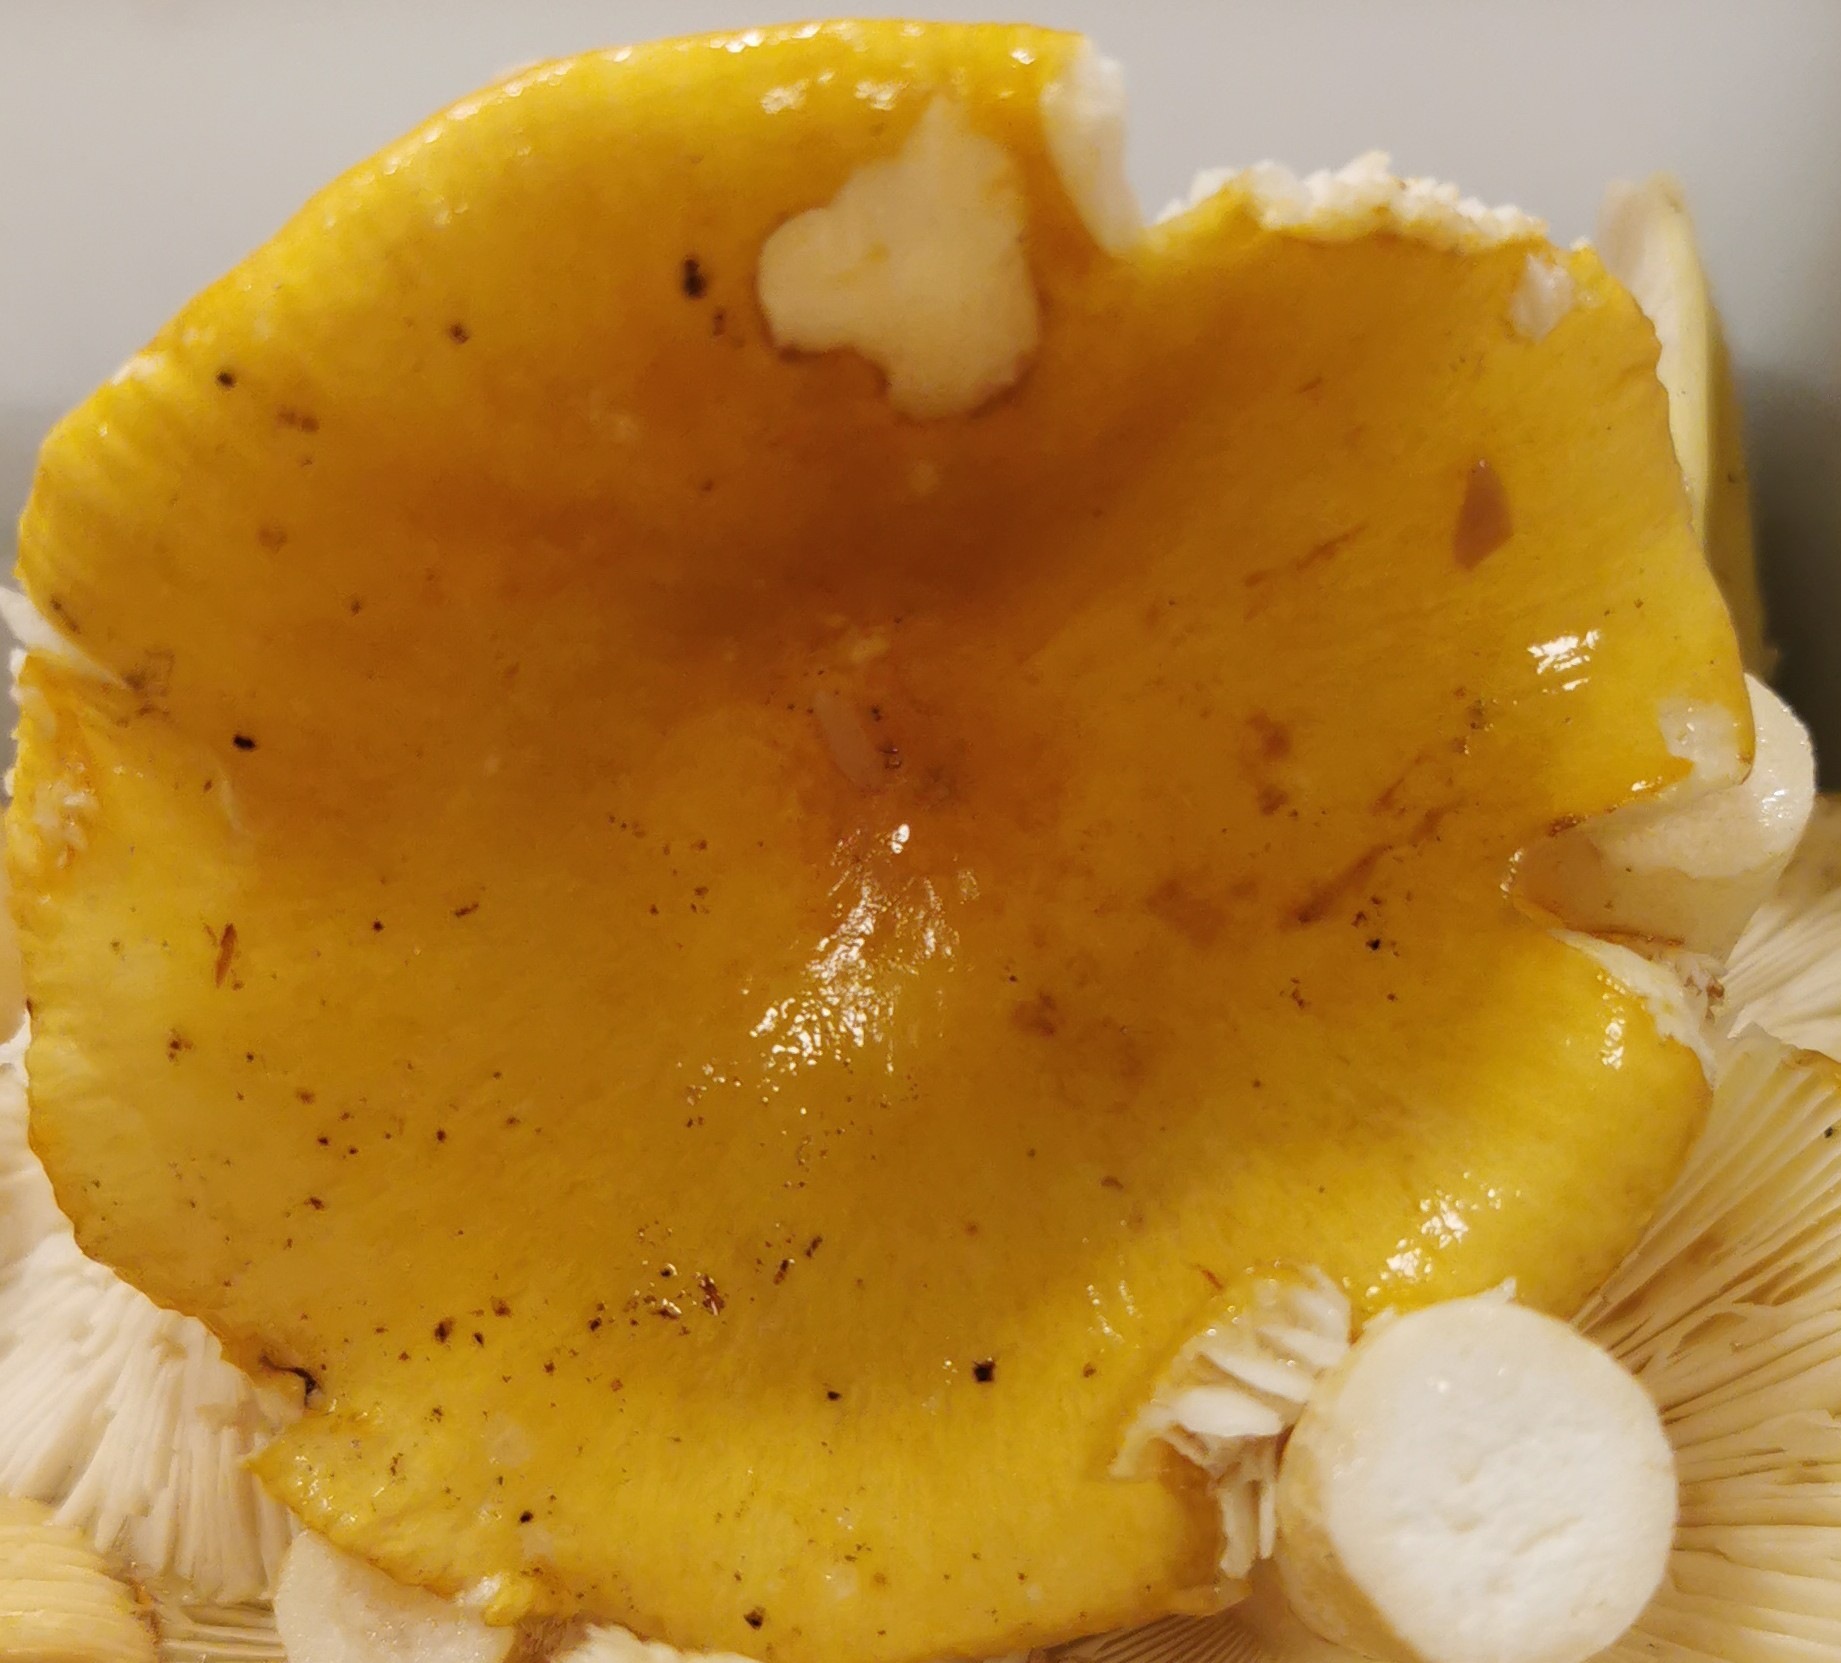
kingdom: Fungi
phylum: Basidiomycota
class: Agaricomycetes
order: Russulales
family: Russulaceae
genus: Russula
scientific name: Russula ochroleuca
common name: okkergul skørhat
